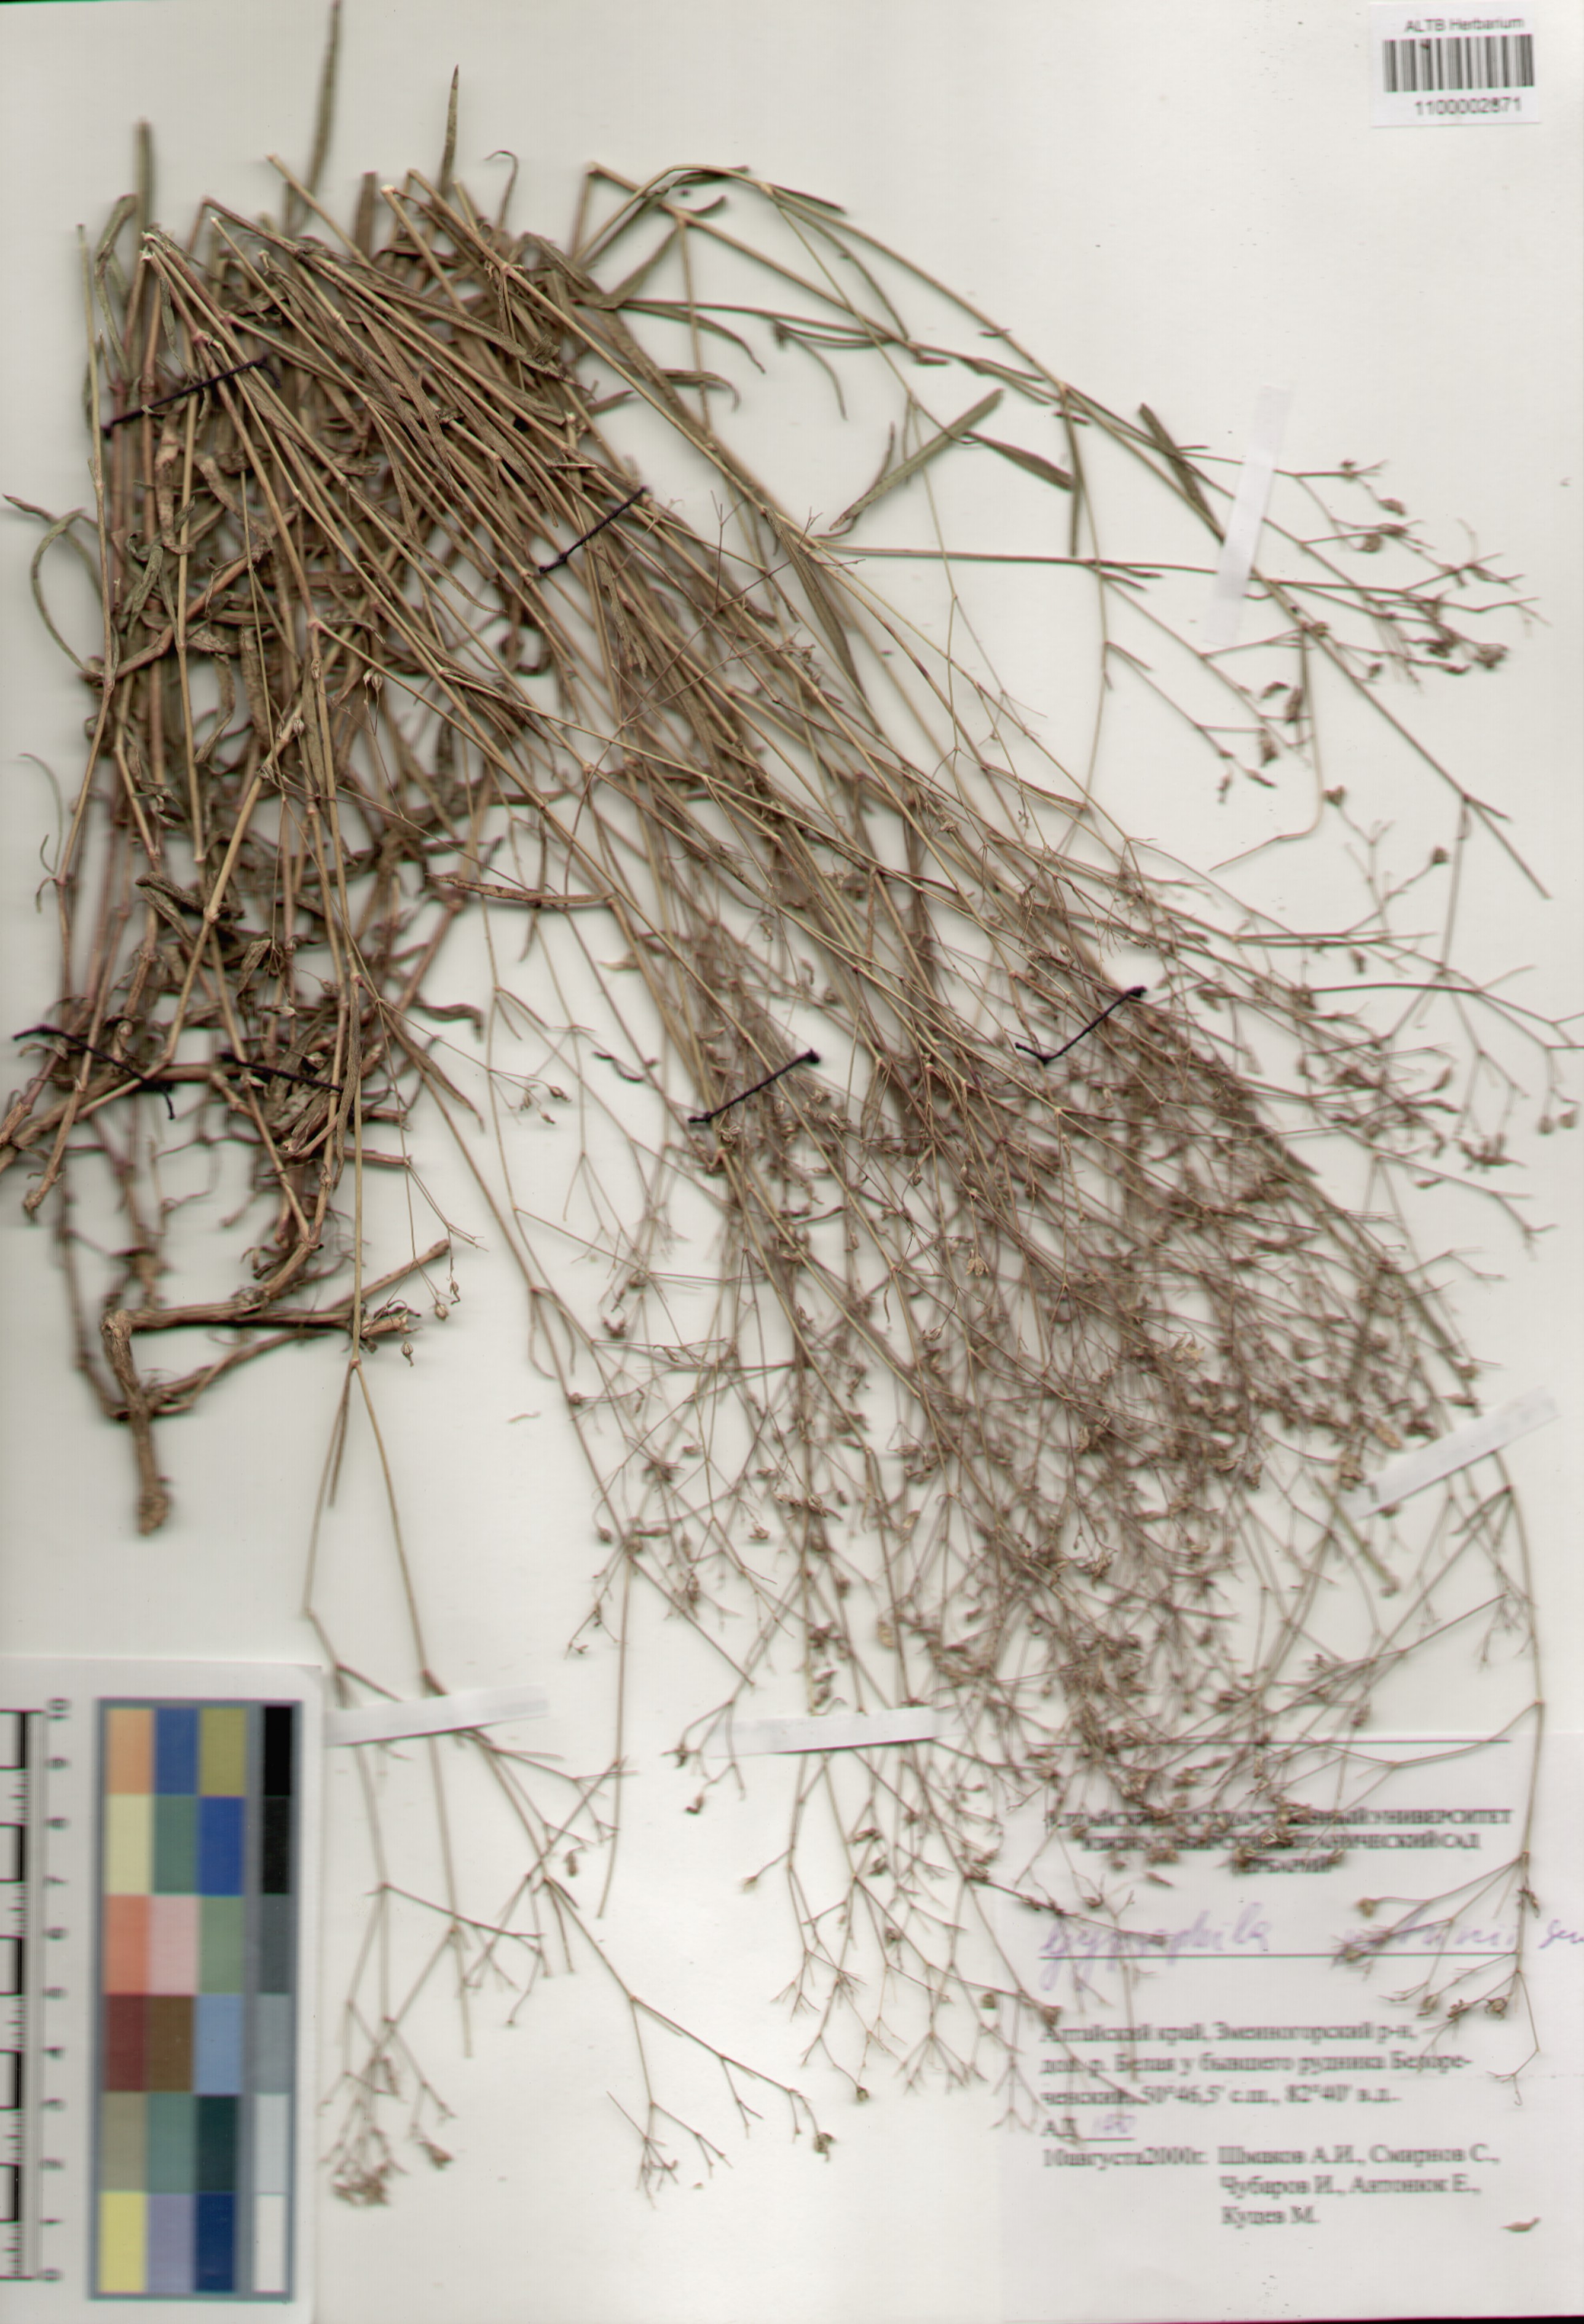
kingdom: Plantae
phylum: Tracheophyta
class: Magnoliopsida
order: Caryophyllales
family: Caryophyllaceae
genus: Gypsophila
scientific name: Gypsophila patrinii
